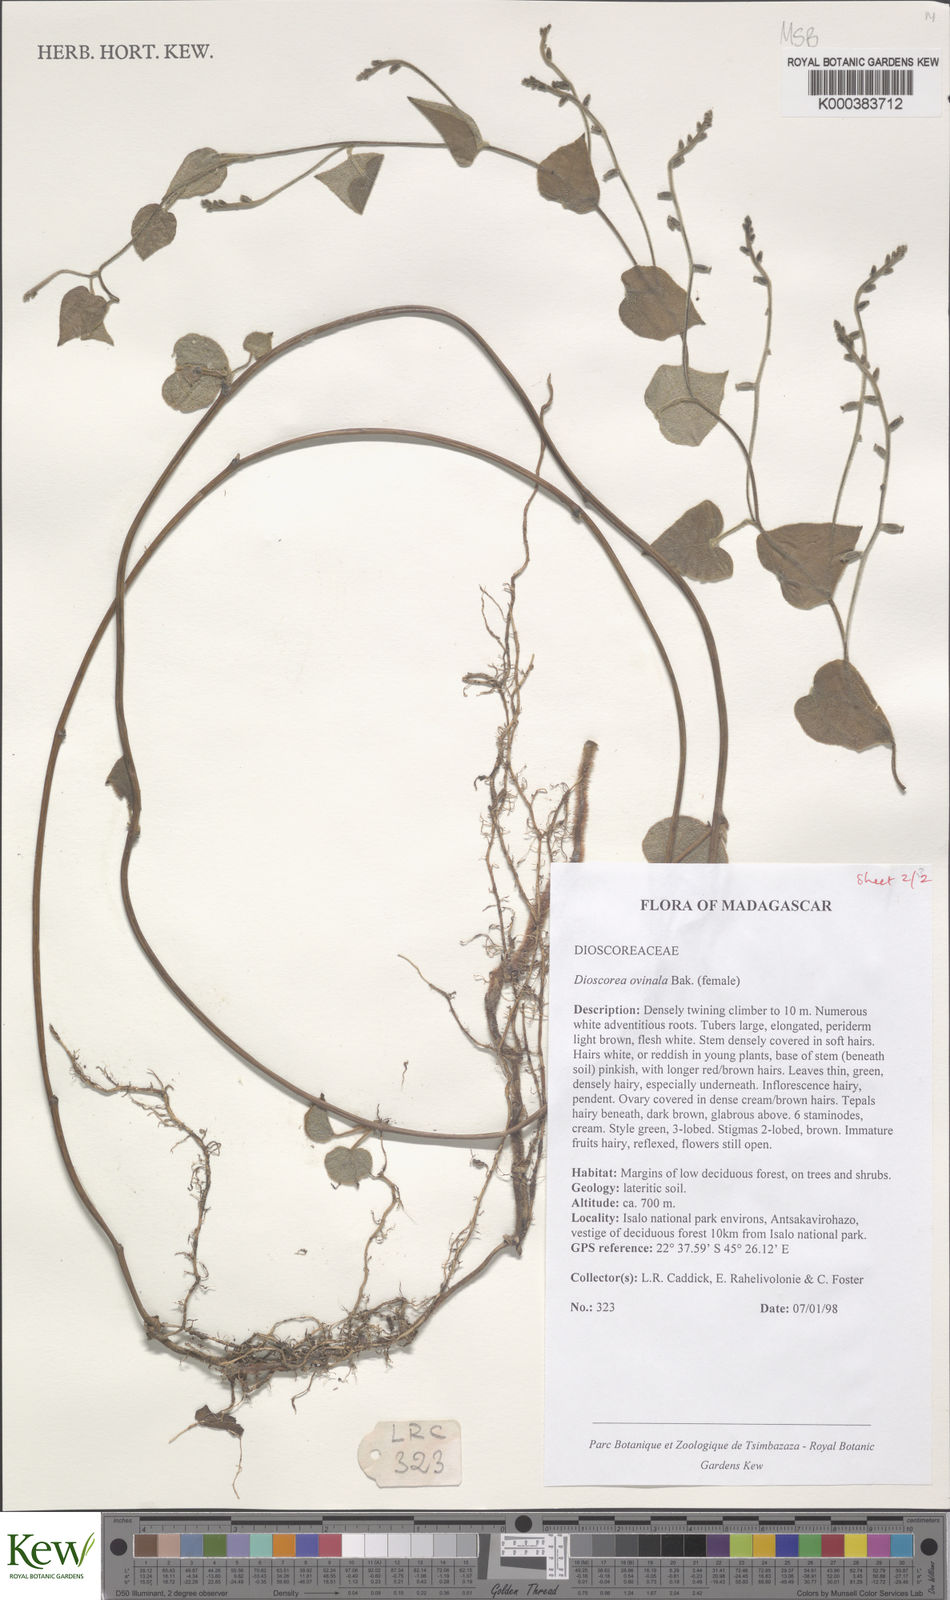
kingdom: Plantae
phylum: Tracheophyta
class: Liliopsida
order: Dioscoreales
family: Dioscoreaceae
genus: Dioscorea
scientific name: Dioscorea ovinala
